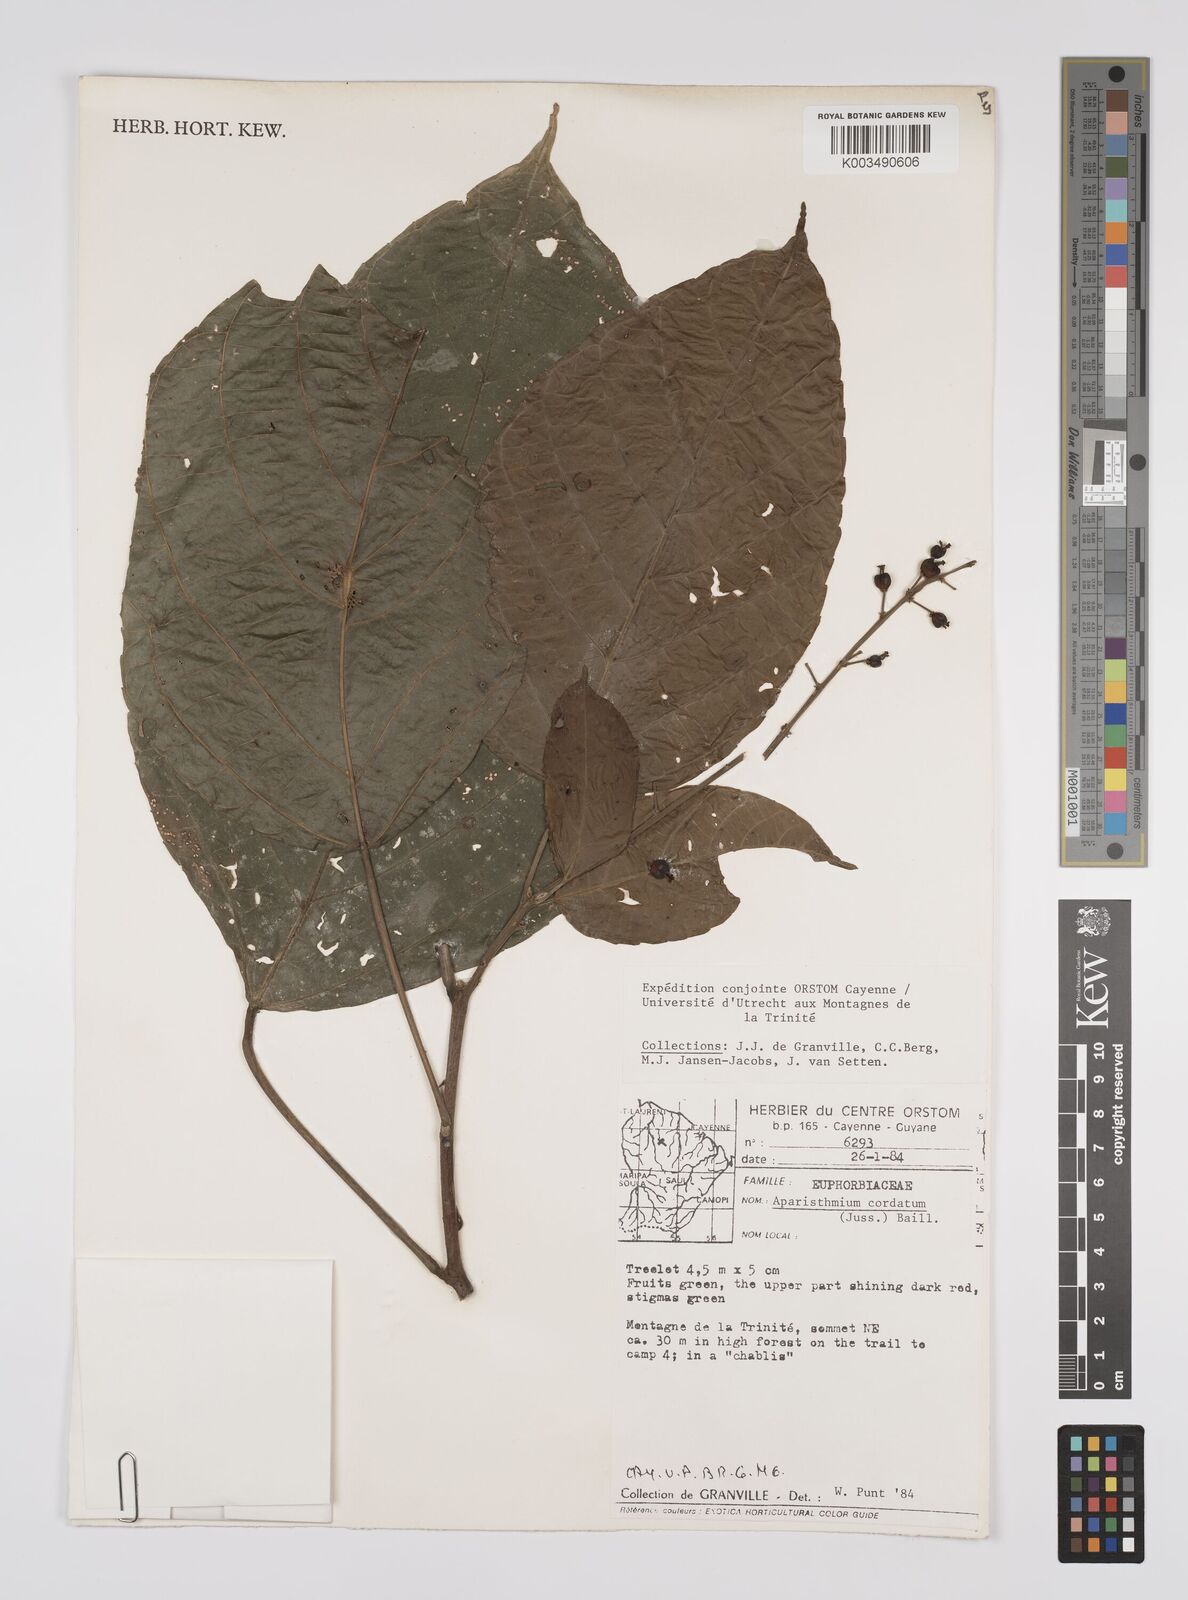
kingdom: Plantae
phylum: Tracheophyta
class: Magnoliopsida
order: Malpighiales
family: Euphorbiaceae
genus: Aparisthmium
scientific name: Aparisthmium cordatum
